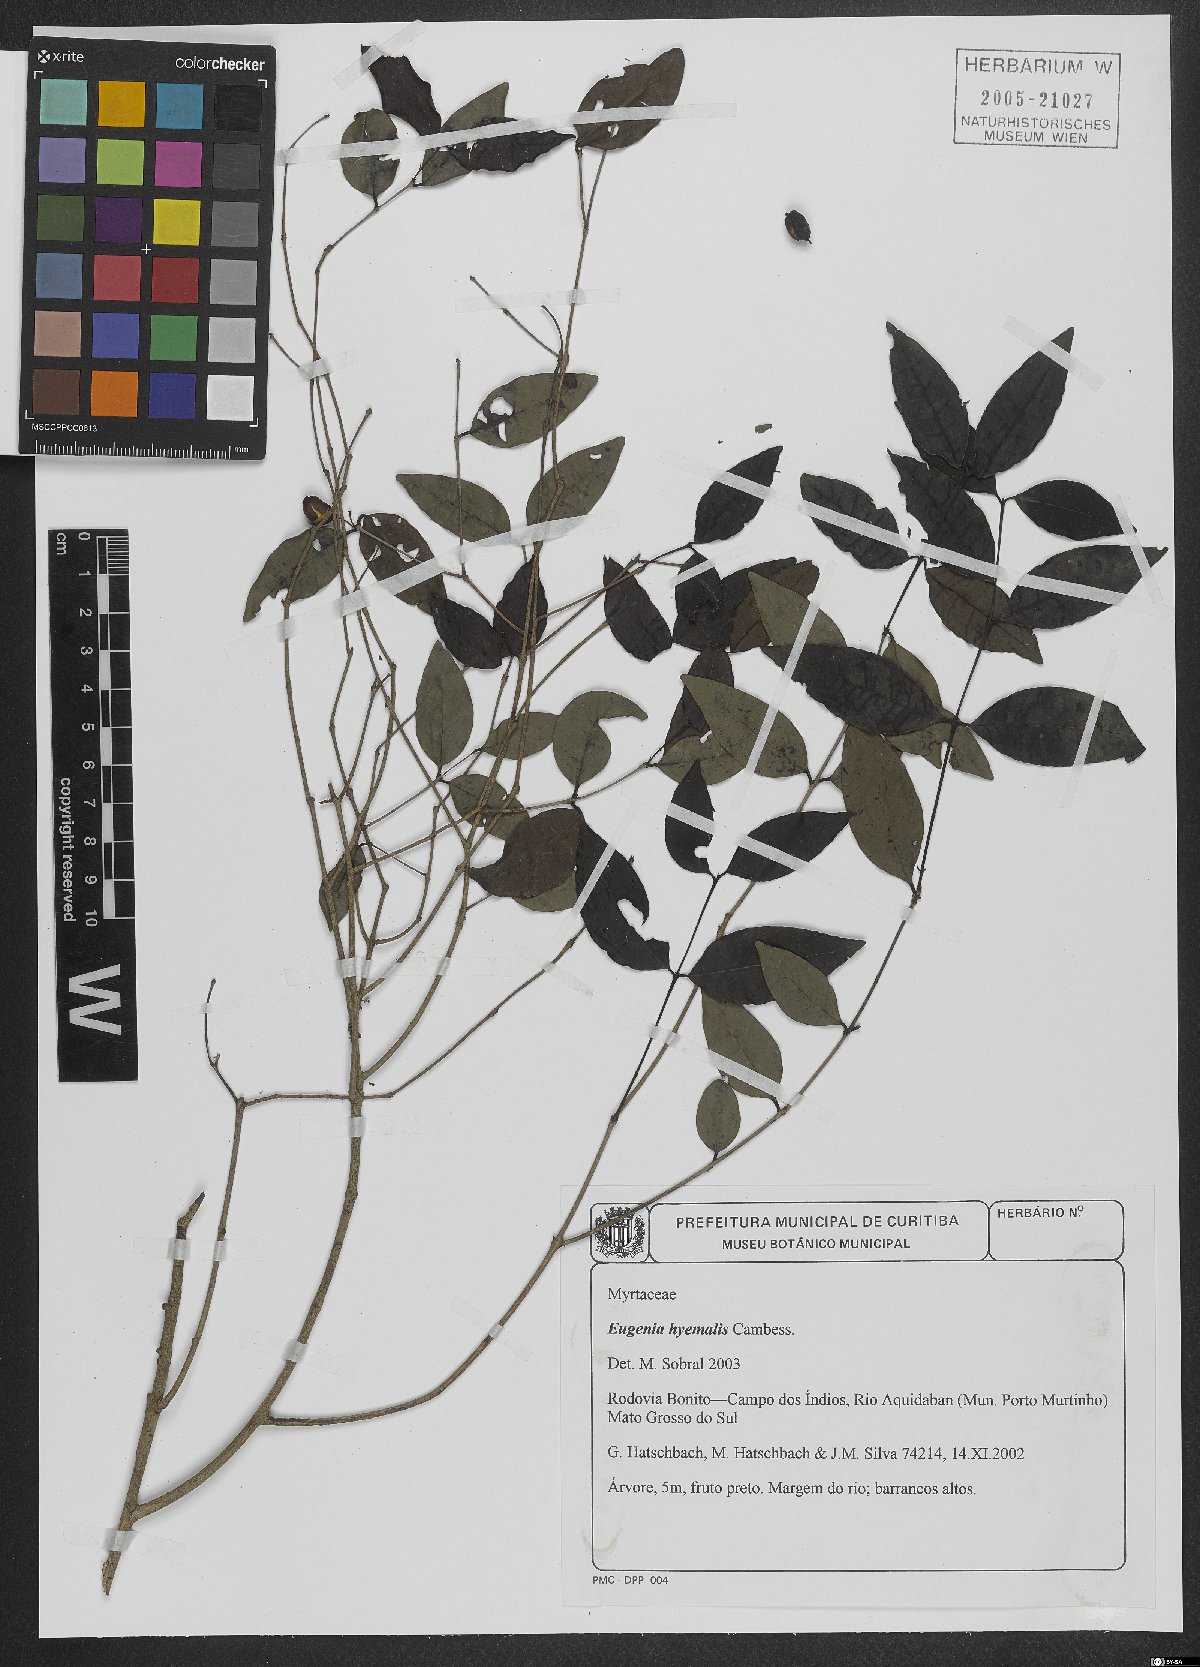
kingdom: Plantae
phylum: Tracheophyta
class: Magnoliopsida
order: Myrtales
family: Myrtaceae
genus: Eugenia
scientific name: Eugenia hiemalis
